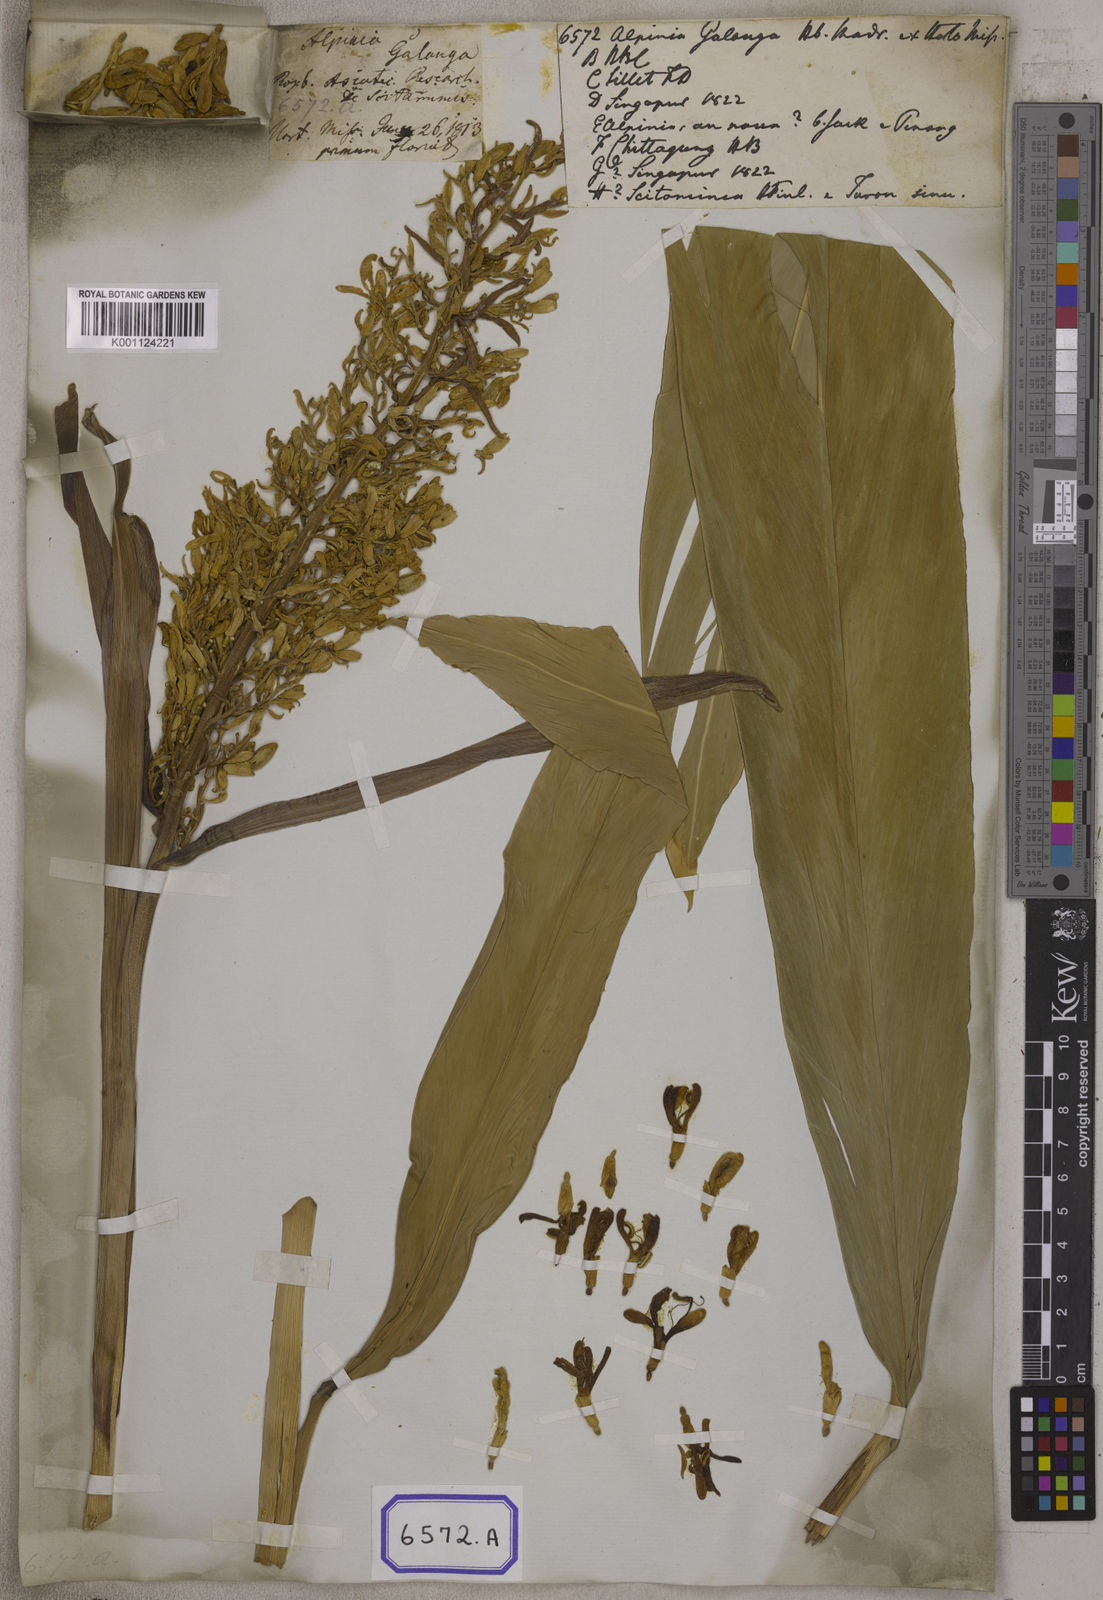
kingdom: Plantae
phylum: Tracheophyta
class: Liliopsida
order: Zingiberales
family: Zingiberaceae
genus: Alpinia
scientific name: Alpinia galanga
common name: Siamese-ginger
